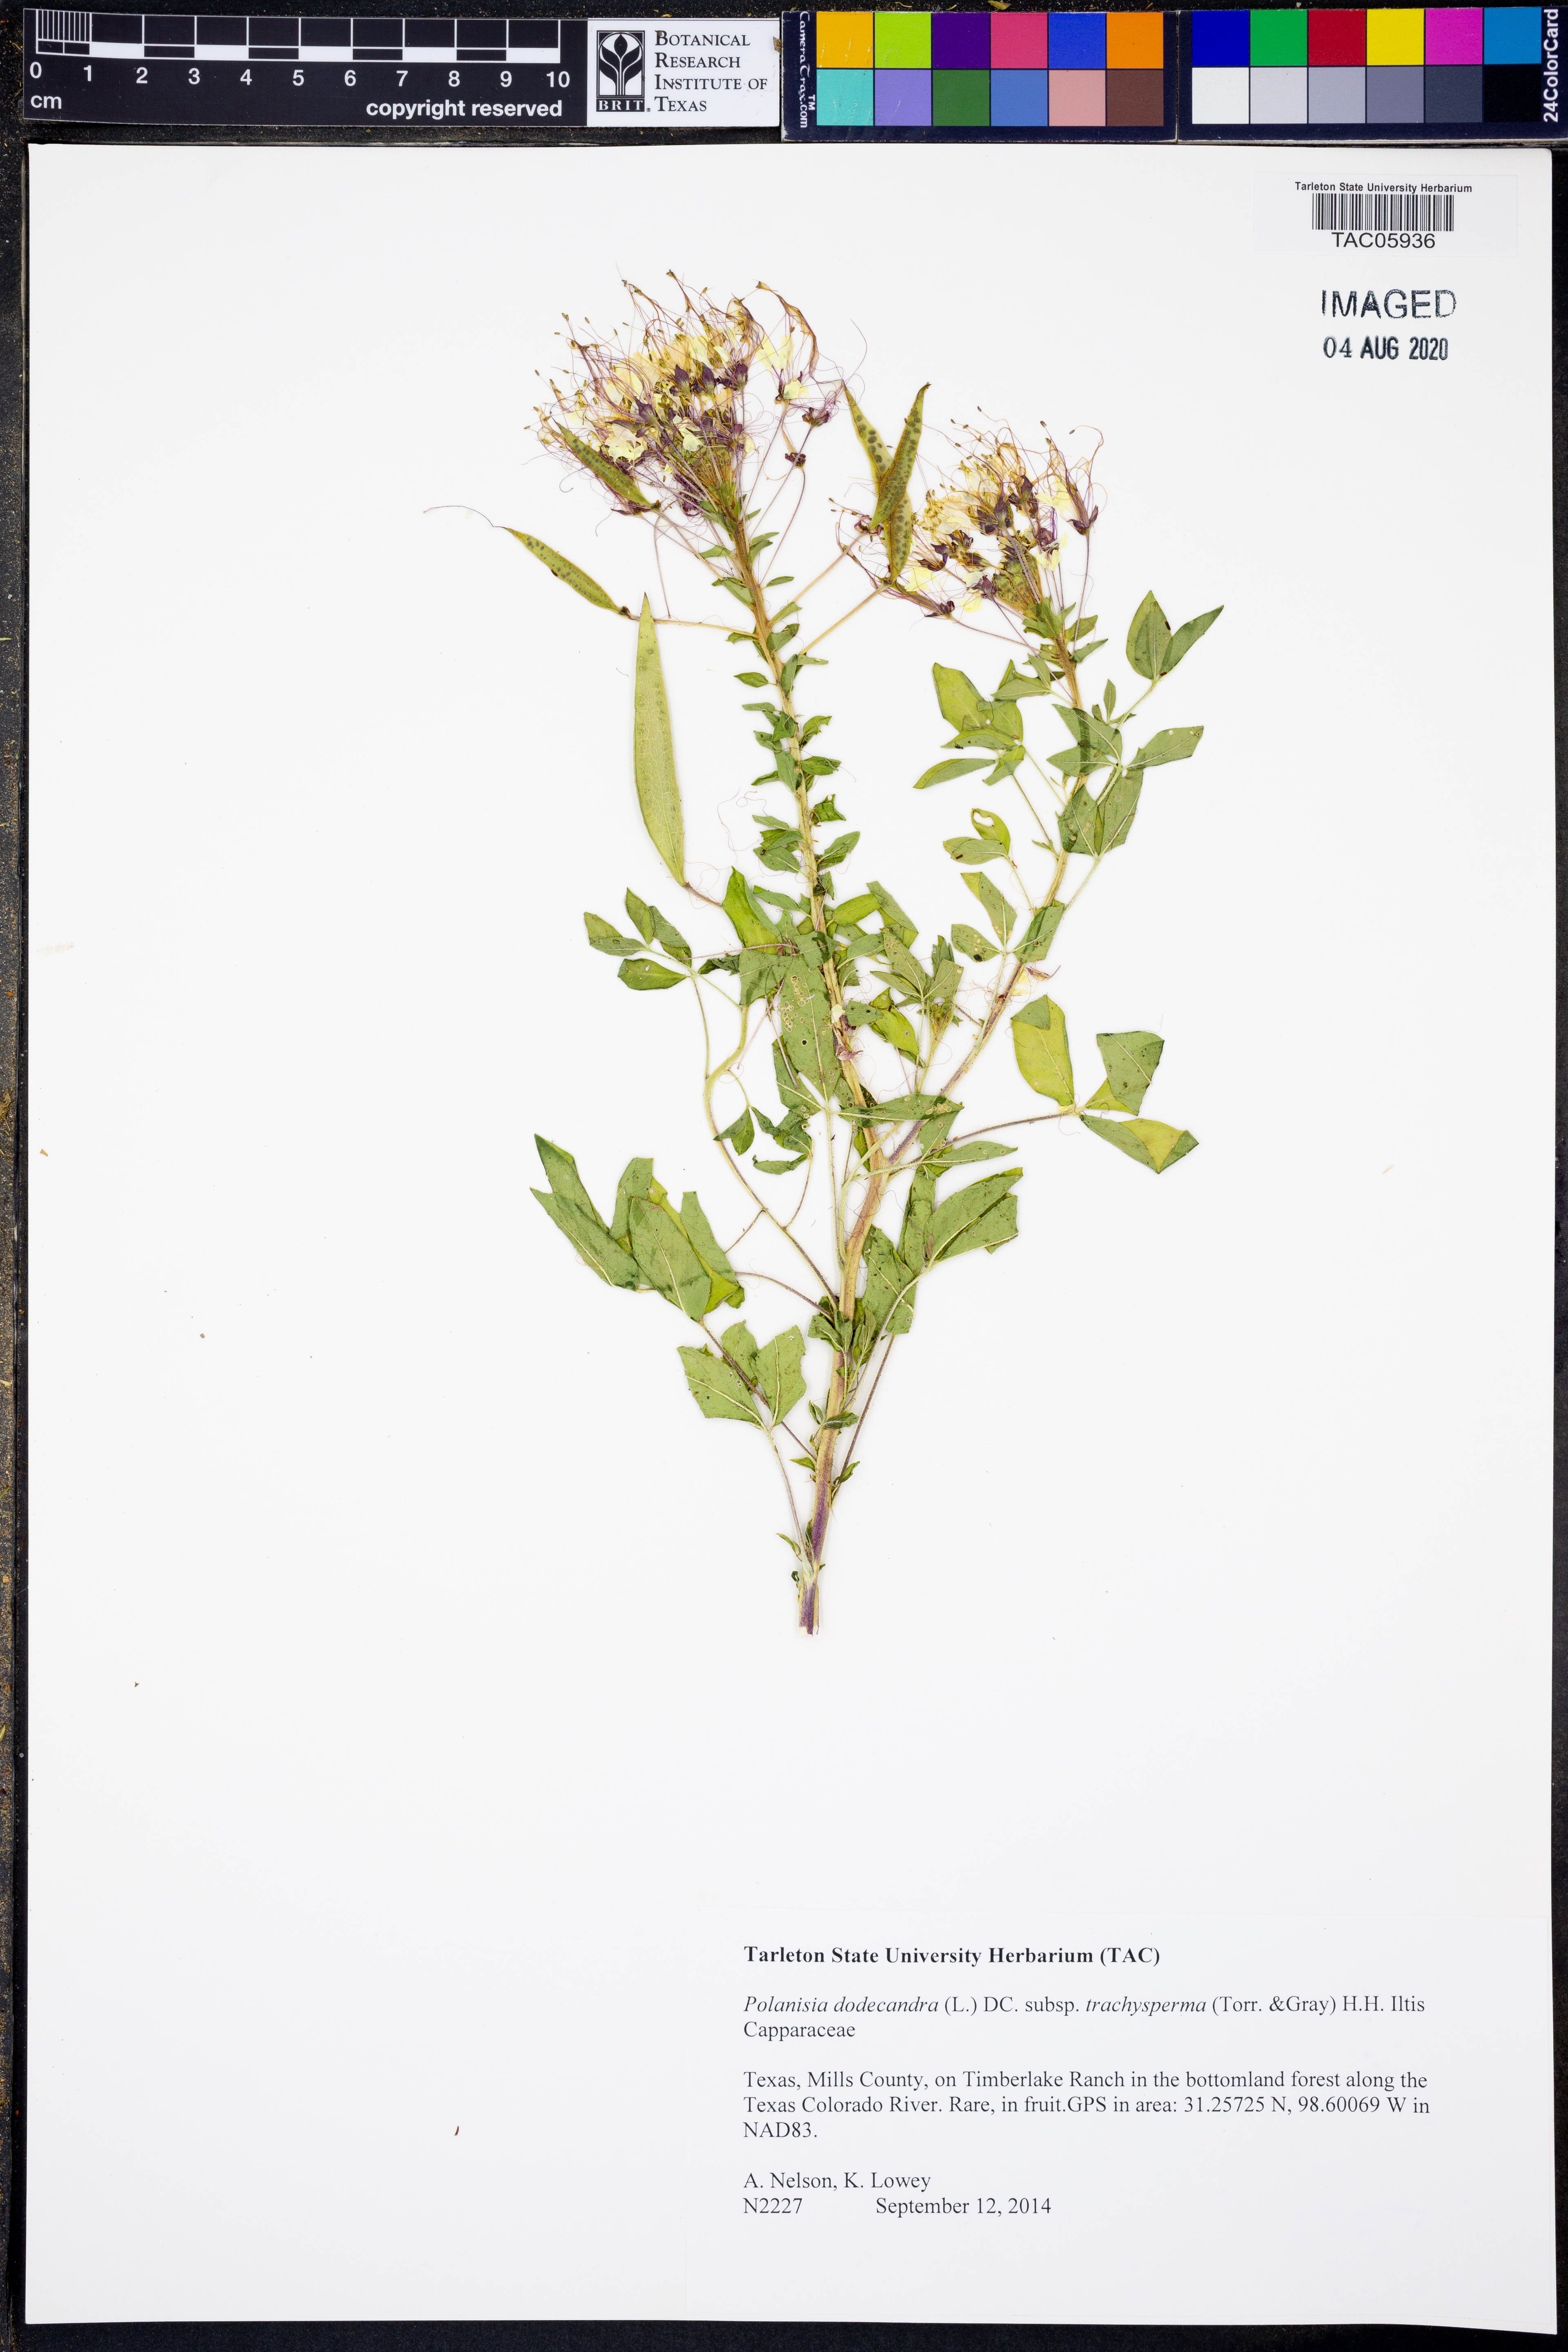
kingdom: Plantae
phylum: Tracheophyta
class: Magnoliopsida
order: Brassicales
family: Cleomaceae
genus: Polanisia
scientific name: Polanisia trachysperma
